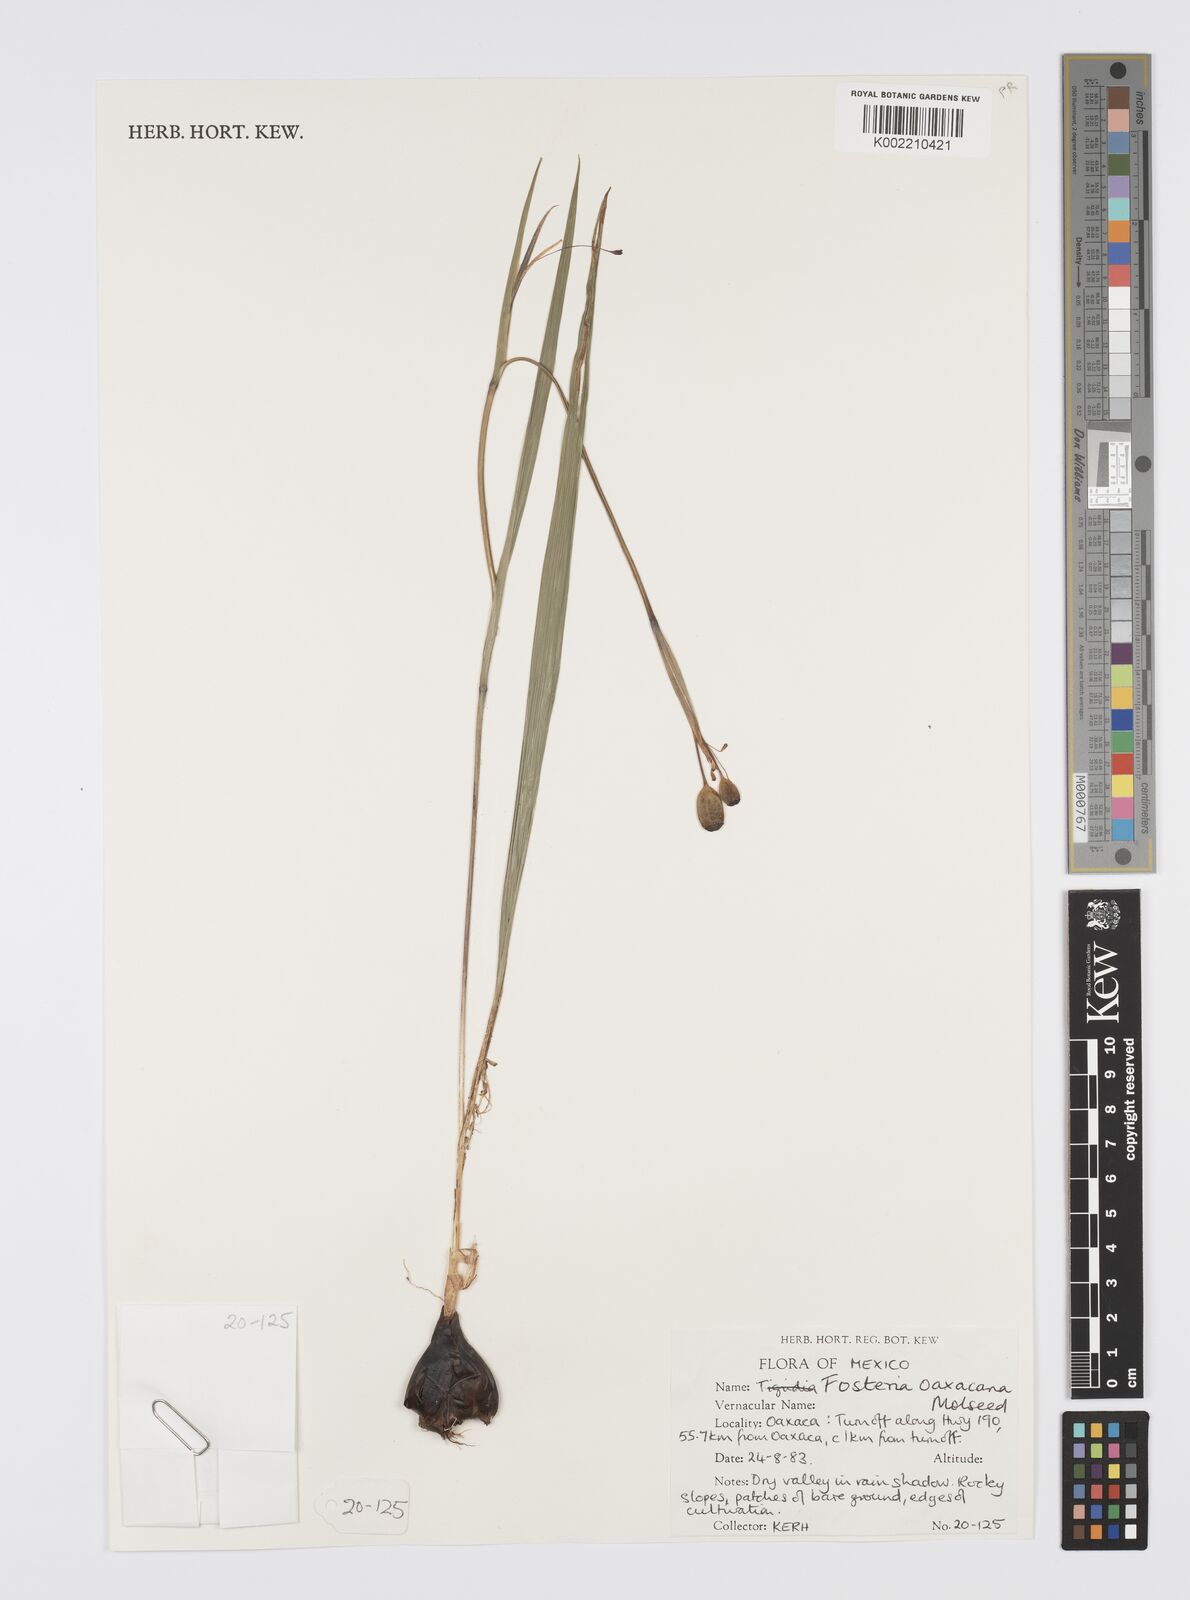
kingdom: Plantae
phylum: Tracheophyta
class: Liliopsida
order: Asparagales
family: Iridaceae
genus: Tigridia
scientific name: Tigridia oaxacana
